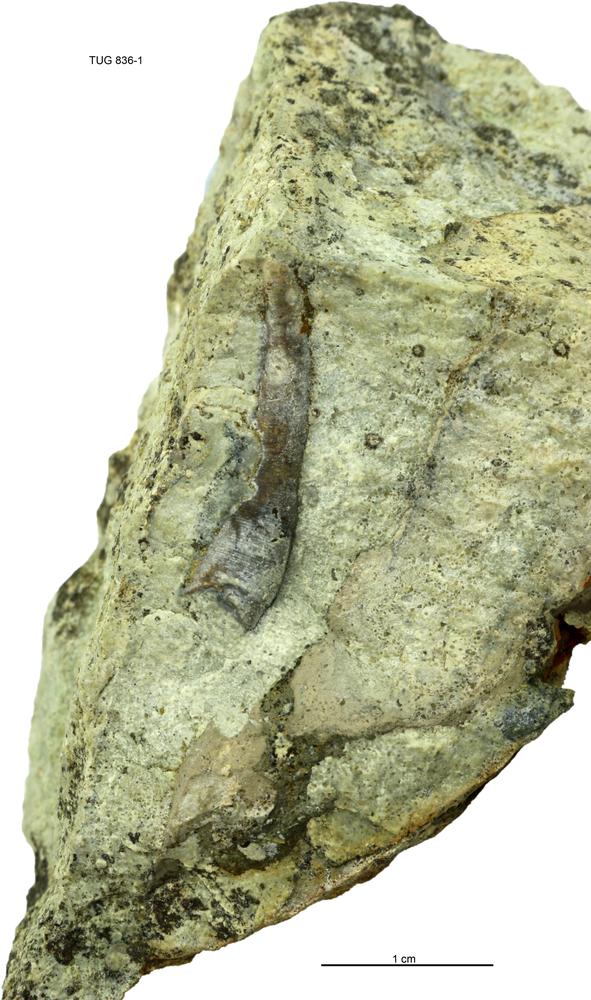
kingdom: Animalia
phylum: Mollusca
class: Gastropoda
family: Pollicinidae
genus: Pollicina
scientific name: Pollicina
